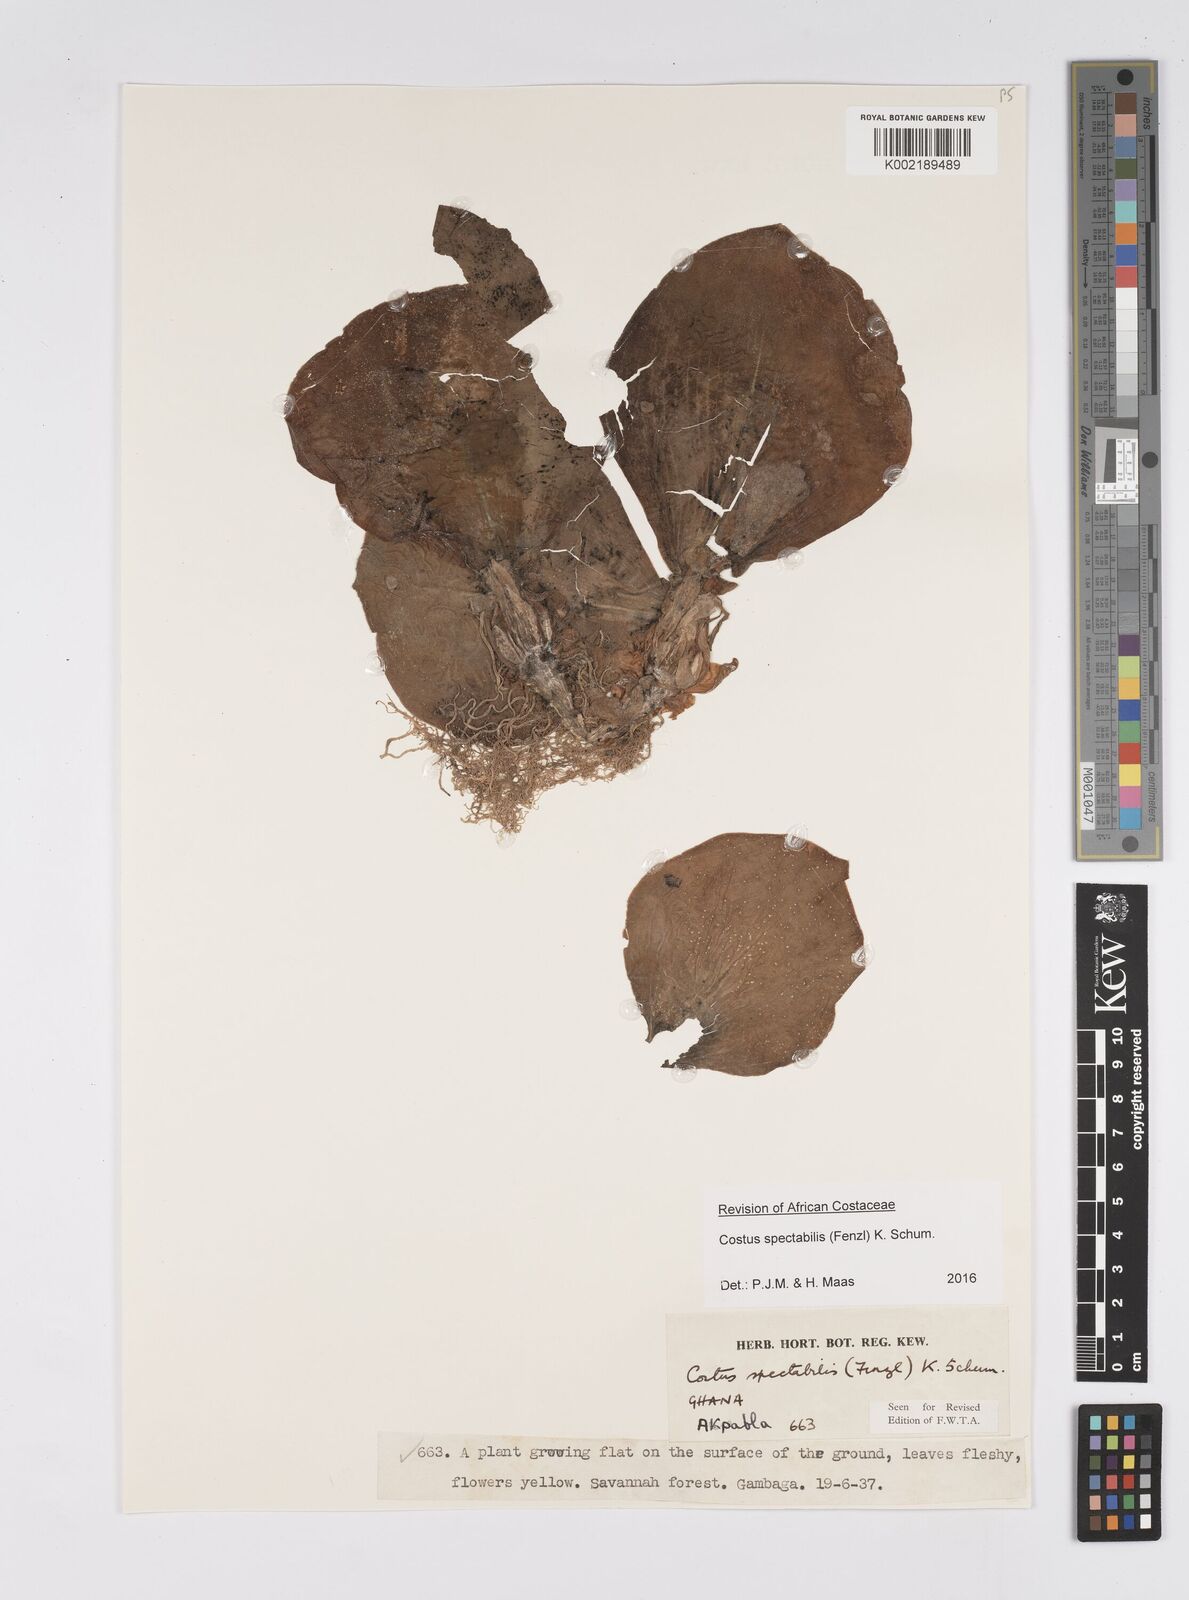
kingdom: Plantae
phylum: Tracheophyta
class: Liliopsida
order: Zingiberales
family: Costaceae
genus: Costus
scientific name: Costus spectabilis
